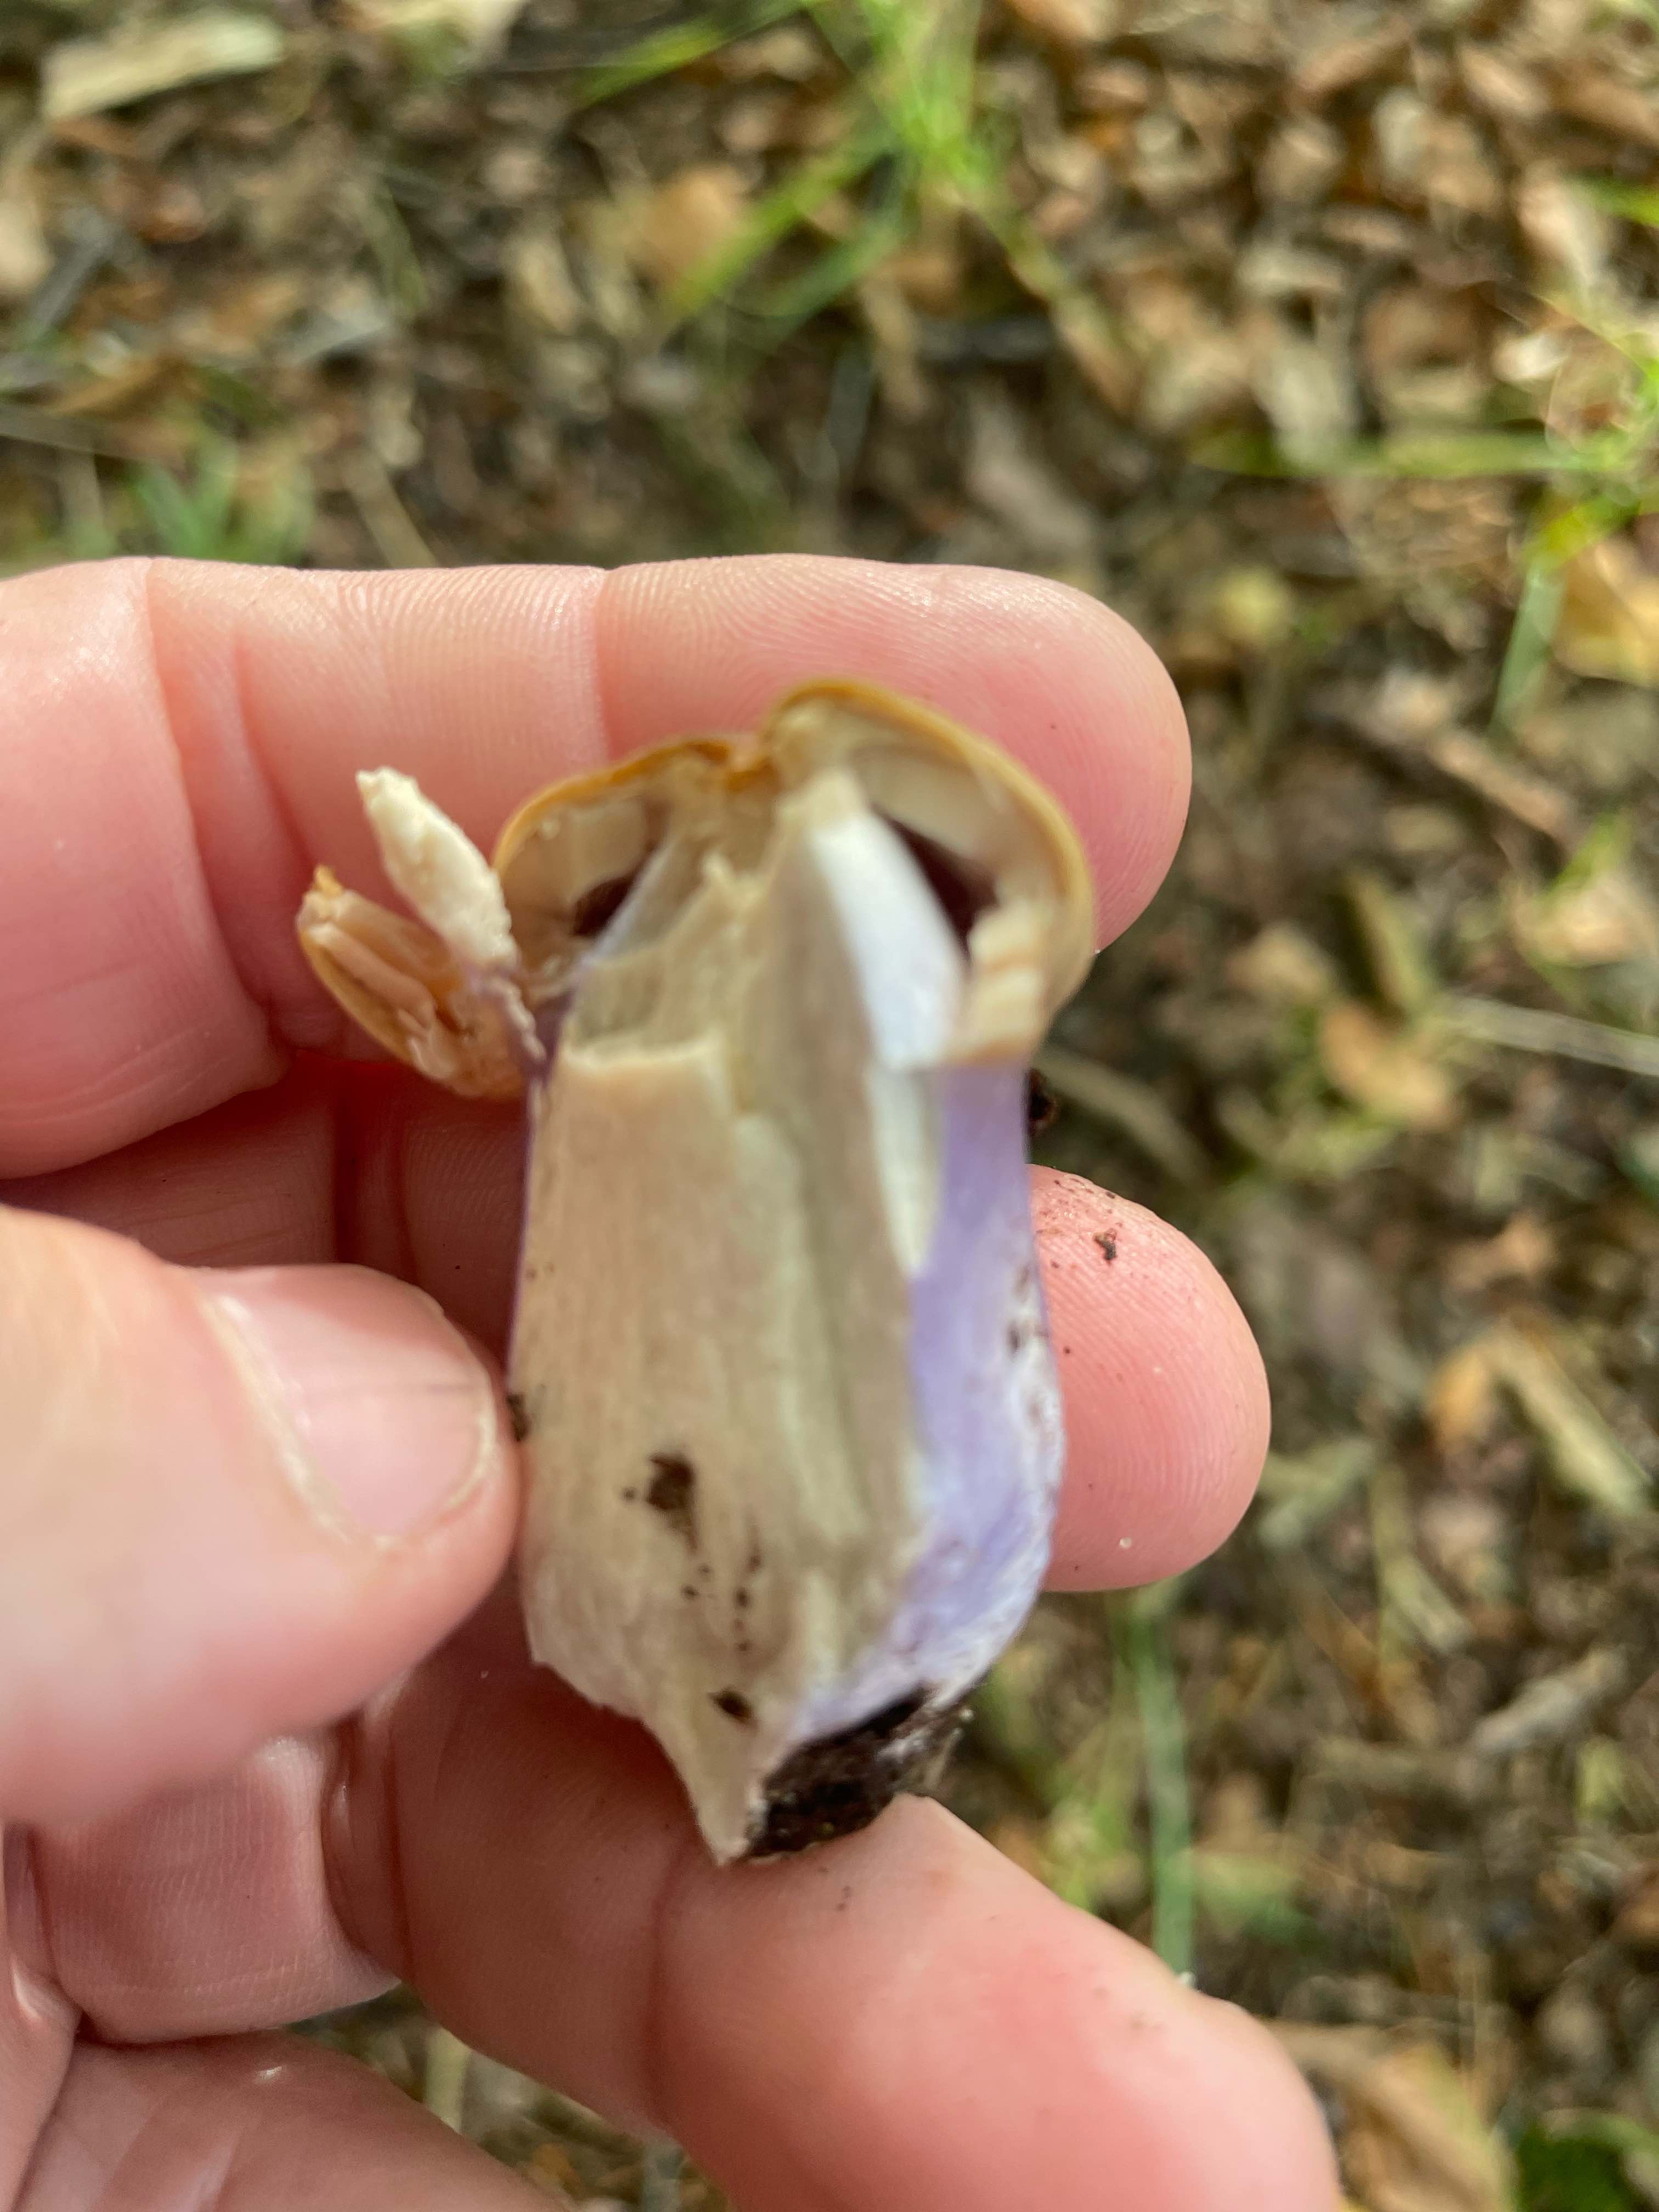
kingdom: Fungi
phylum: Basidiomycota
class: Agaricomycetes
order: Agaricales
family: Cortinariaceae
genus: Cortinarius
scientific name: Cortinarius elatior
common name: høj slørhat
